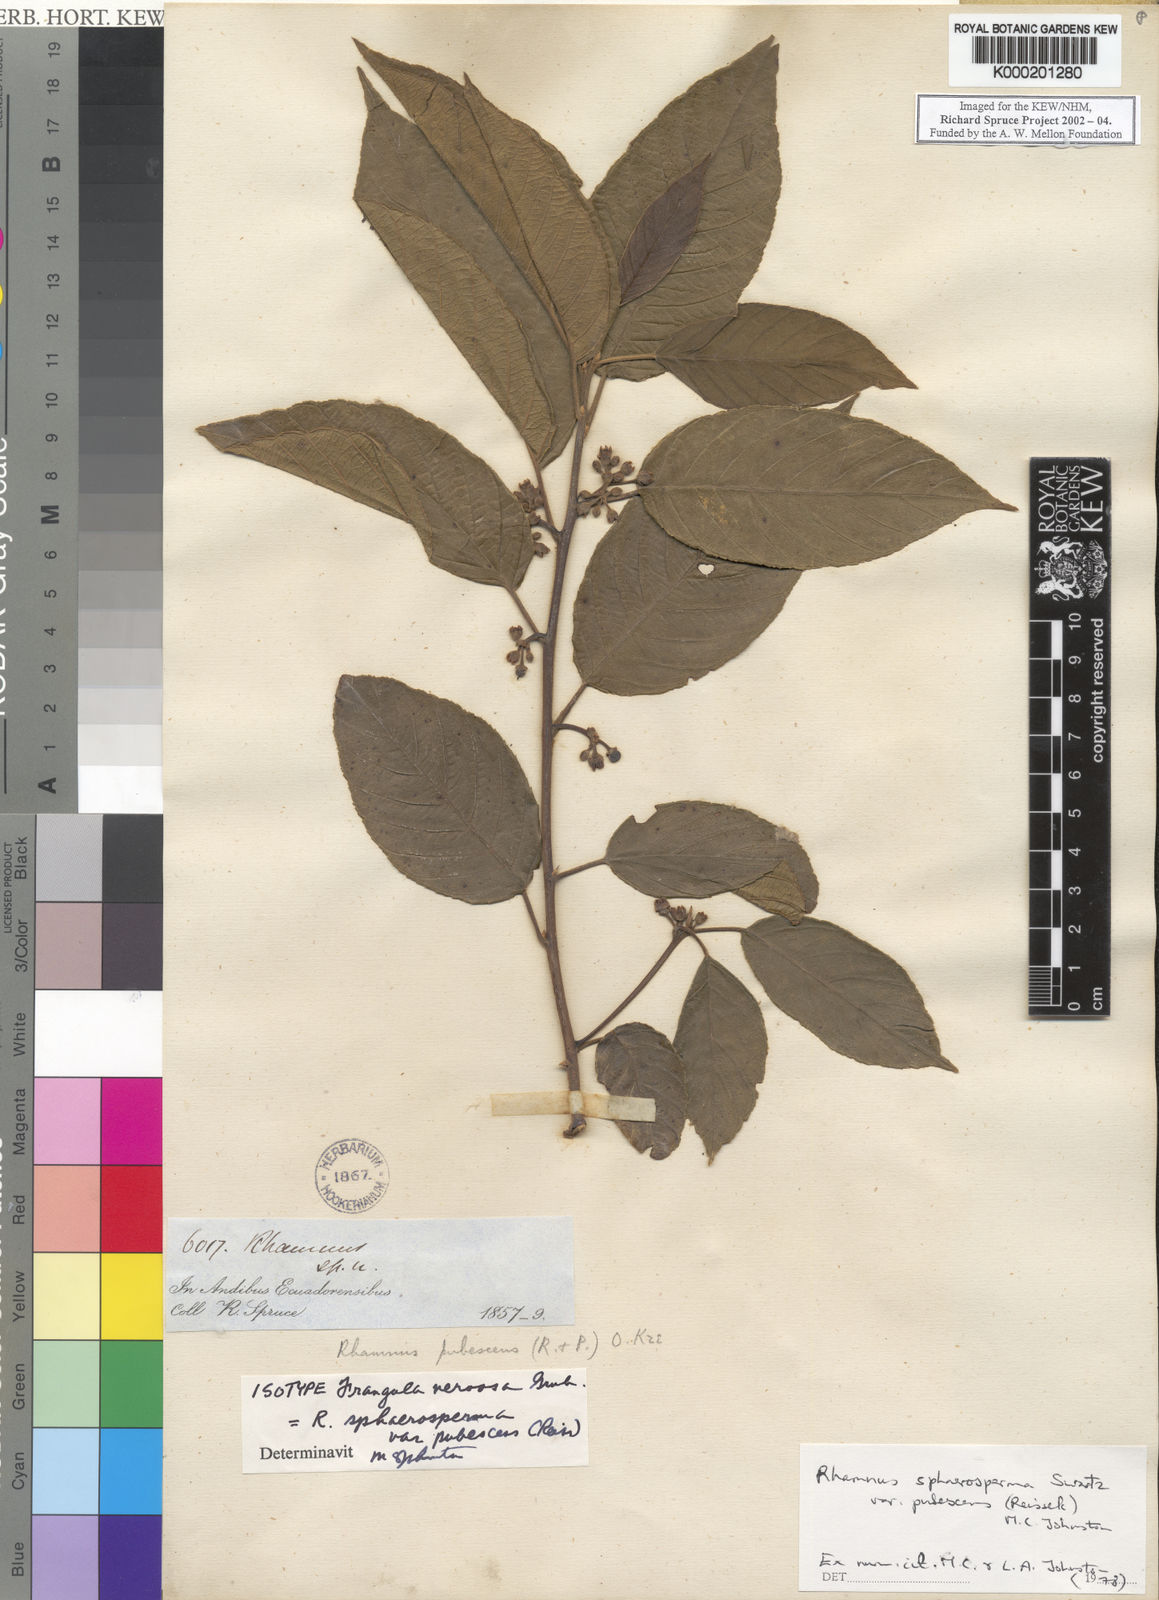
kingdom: Plantae
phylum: Tracheophyta
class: Magnoliopsida
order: Rosales
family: Rhamnaceae
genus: Frangula
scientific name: Frangula
